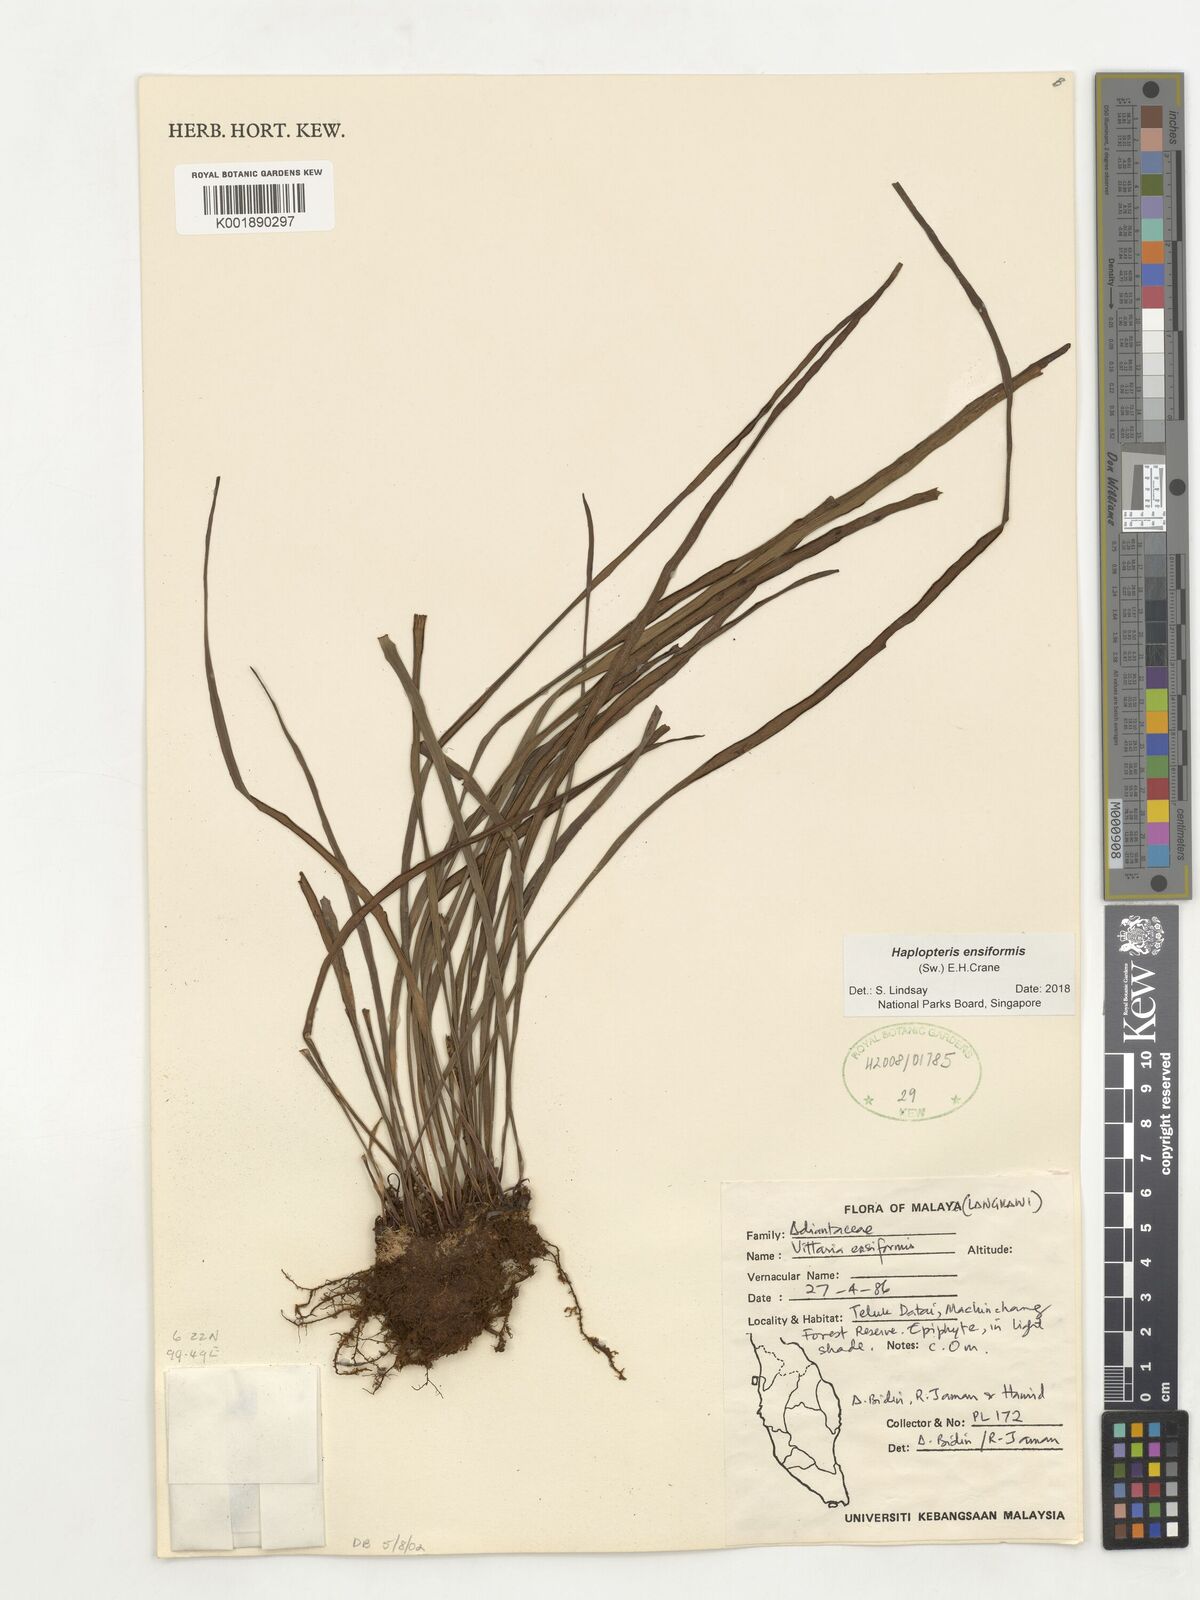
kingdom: Plantae
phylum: Tracheophyta
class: Polypodiopsida
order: Polypodiales
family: Pteridaceae
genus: Haplopteris
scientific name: Haplopteris ensiformis
